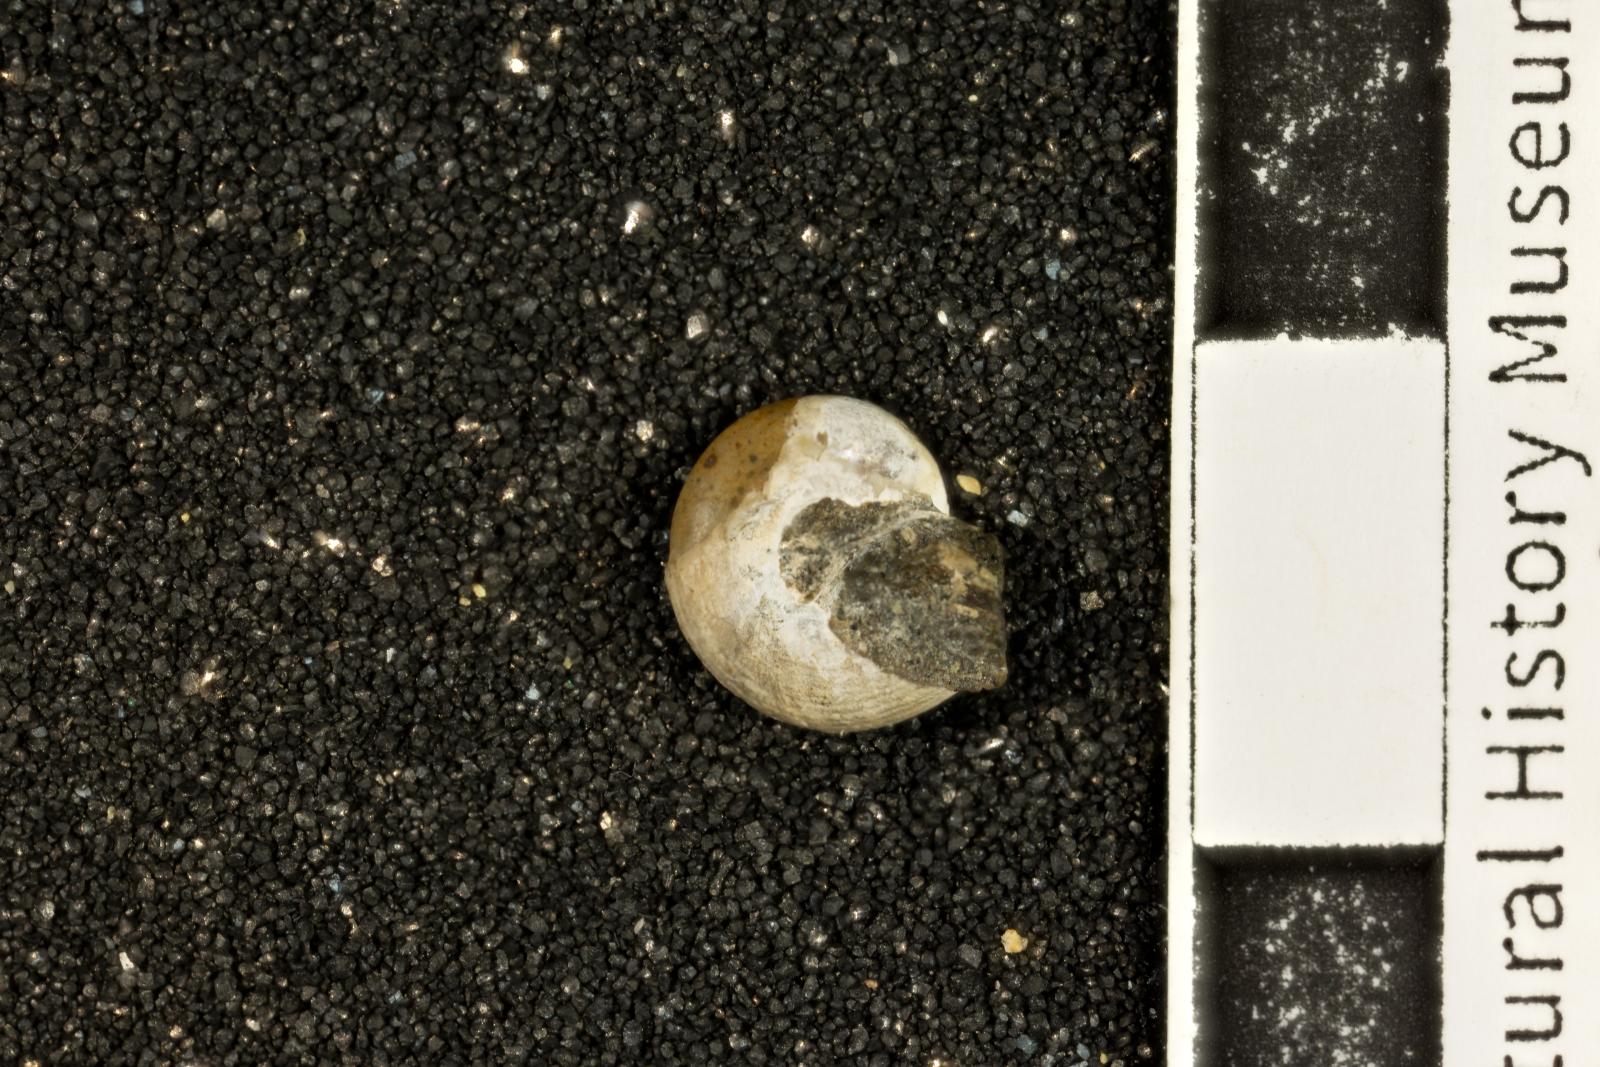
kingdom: Animalia
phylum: Mollusca
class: Gastropoda
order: Trochida
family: Margaritidae
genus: Afrollonia
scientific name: Afrollonia
